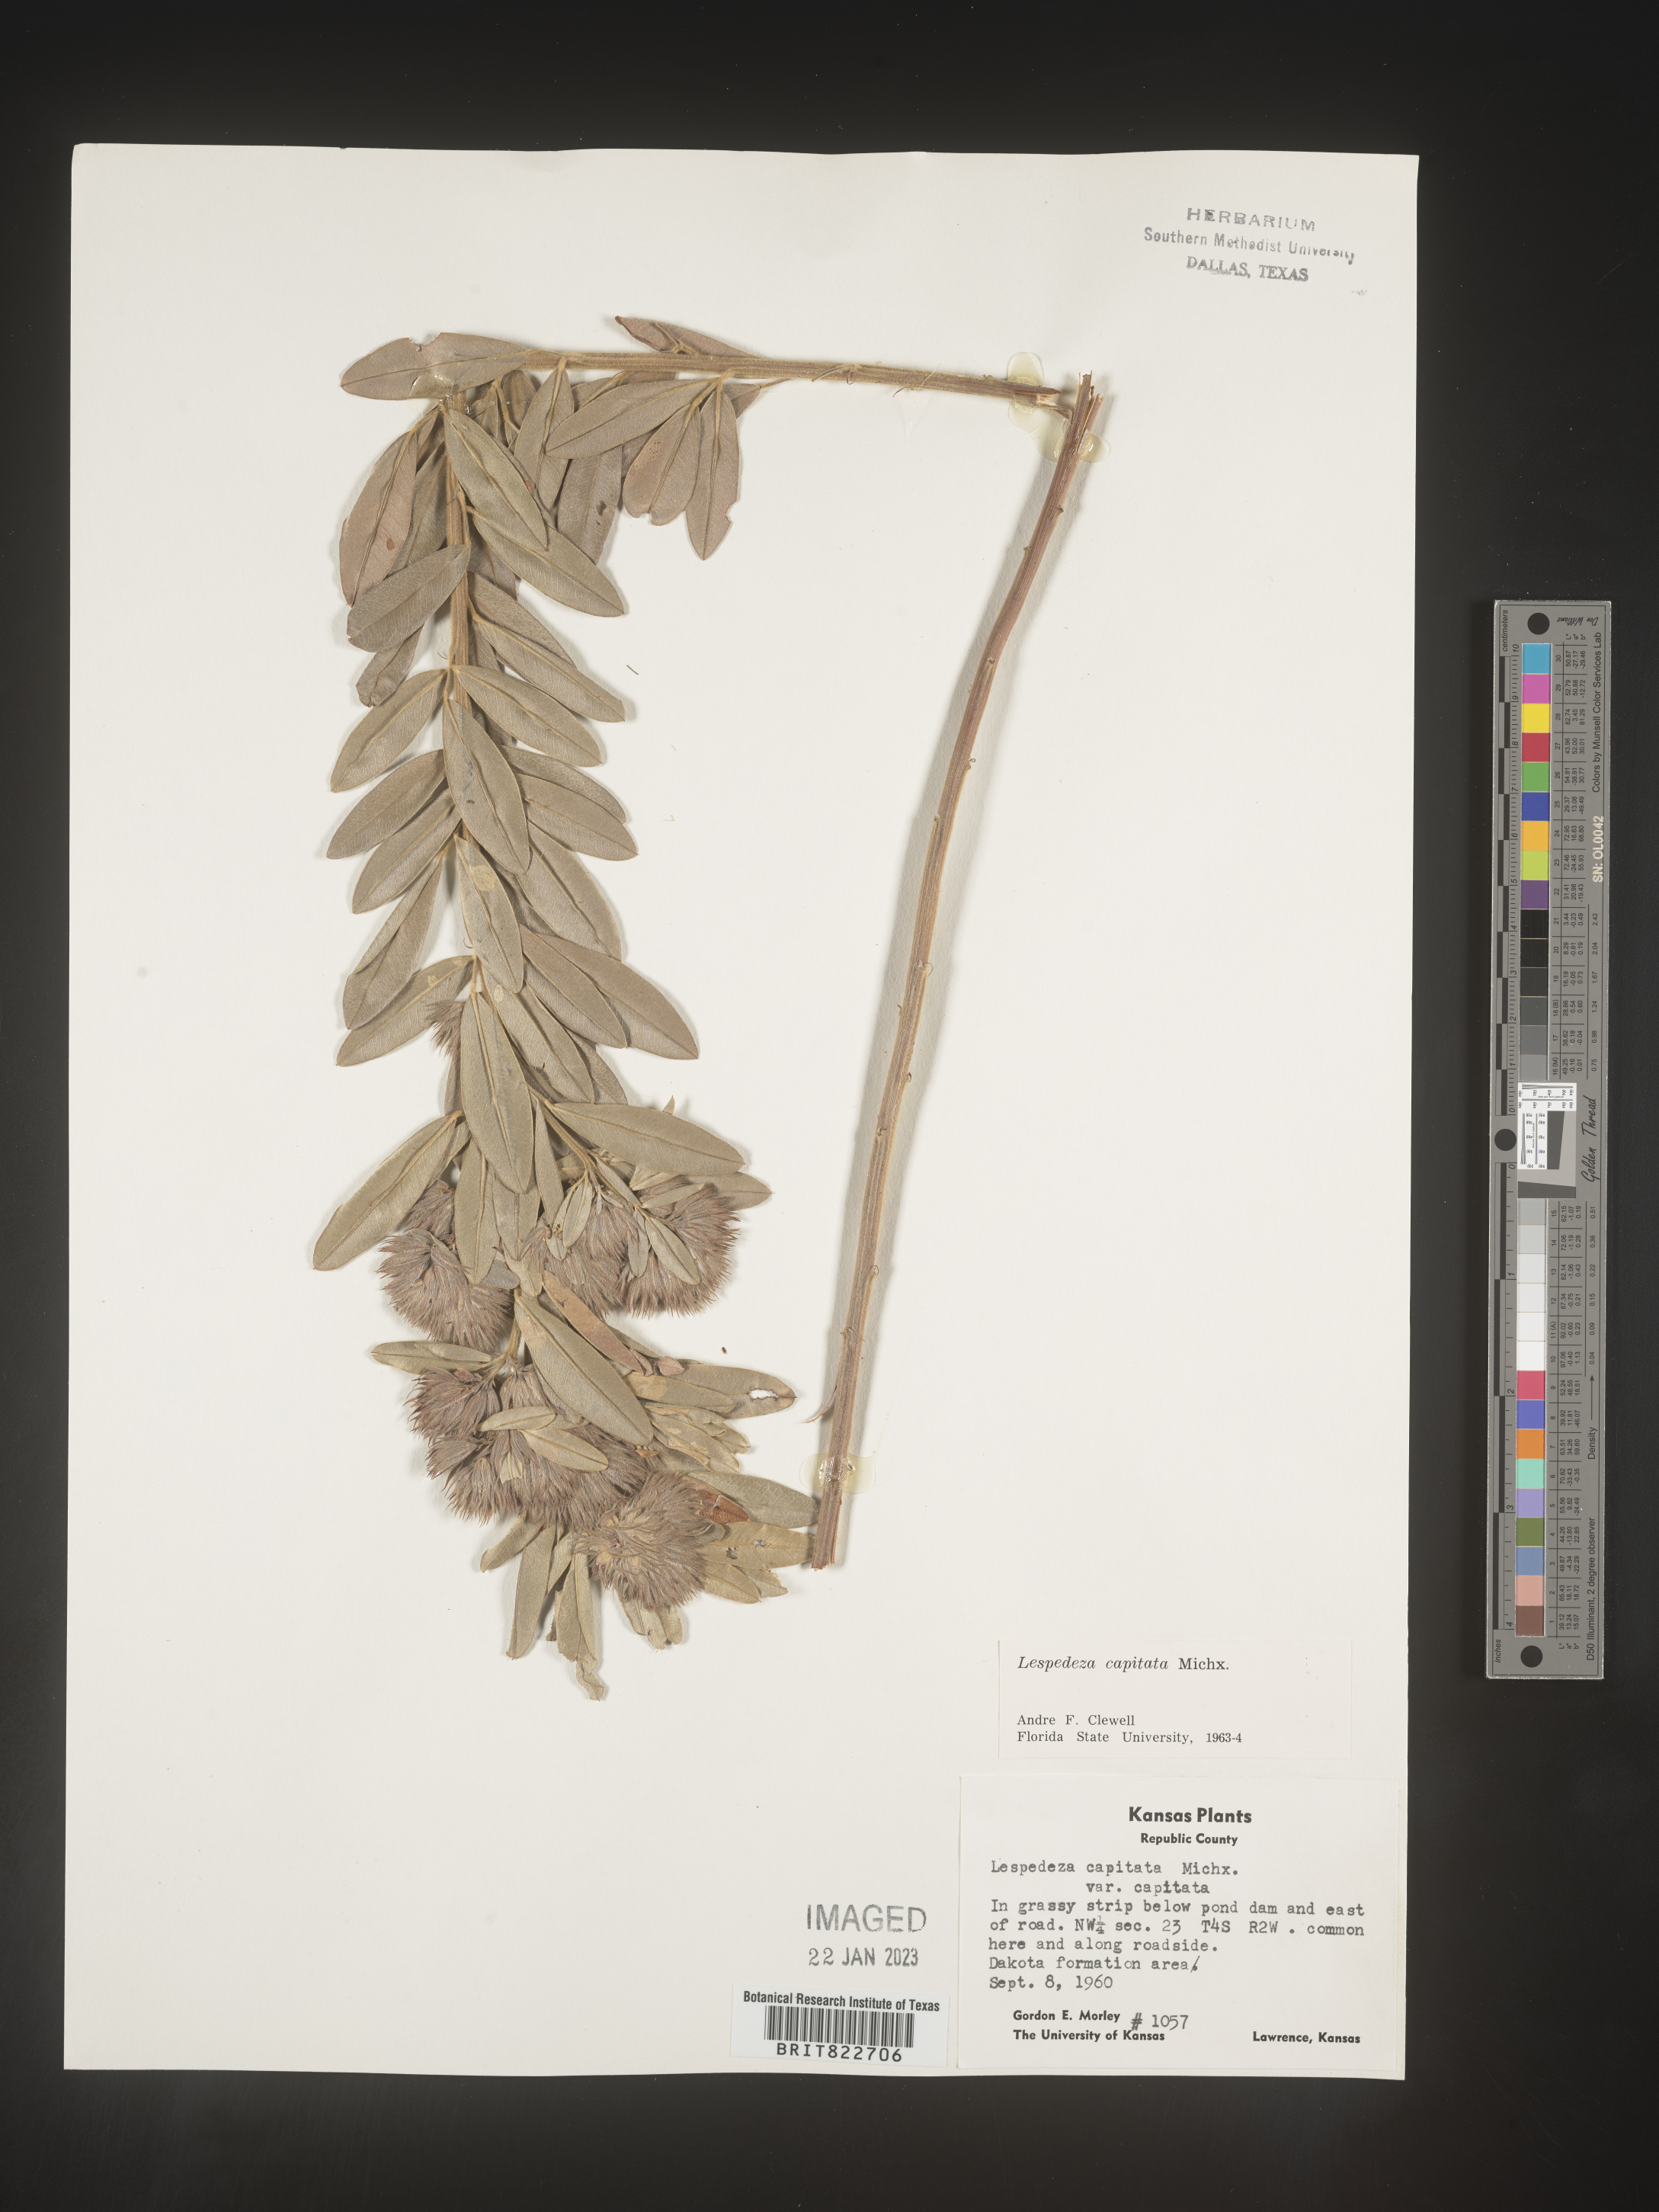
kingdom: Plantae
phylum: Tracheophyta
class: Magnoliopsida
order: Fabales
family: Fabaceae
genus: Lespedeza
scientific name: Lespedeza capitata
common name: Dusty clover
